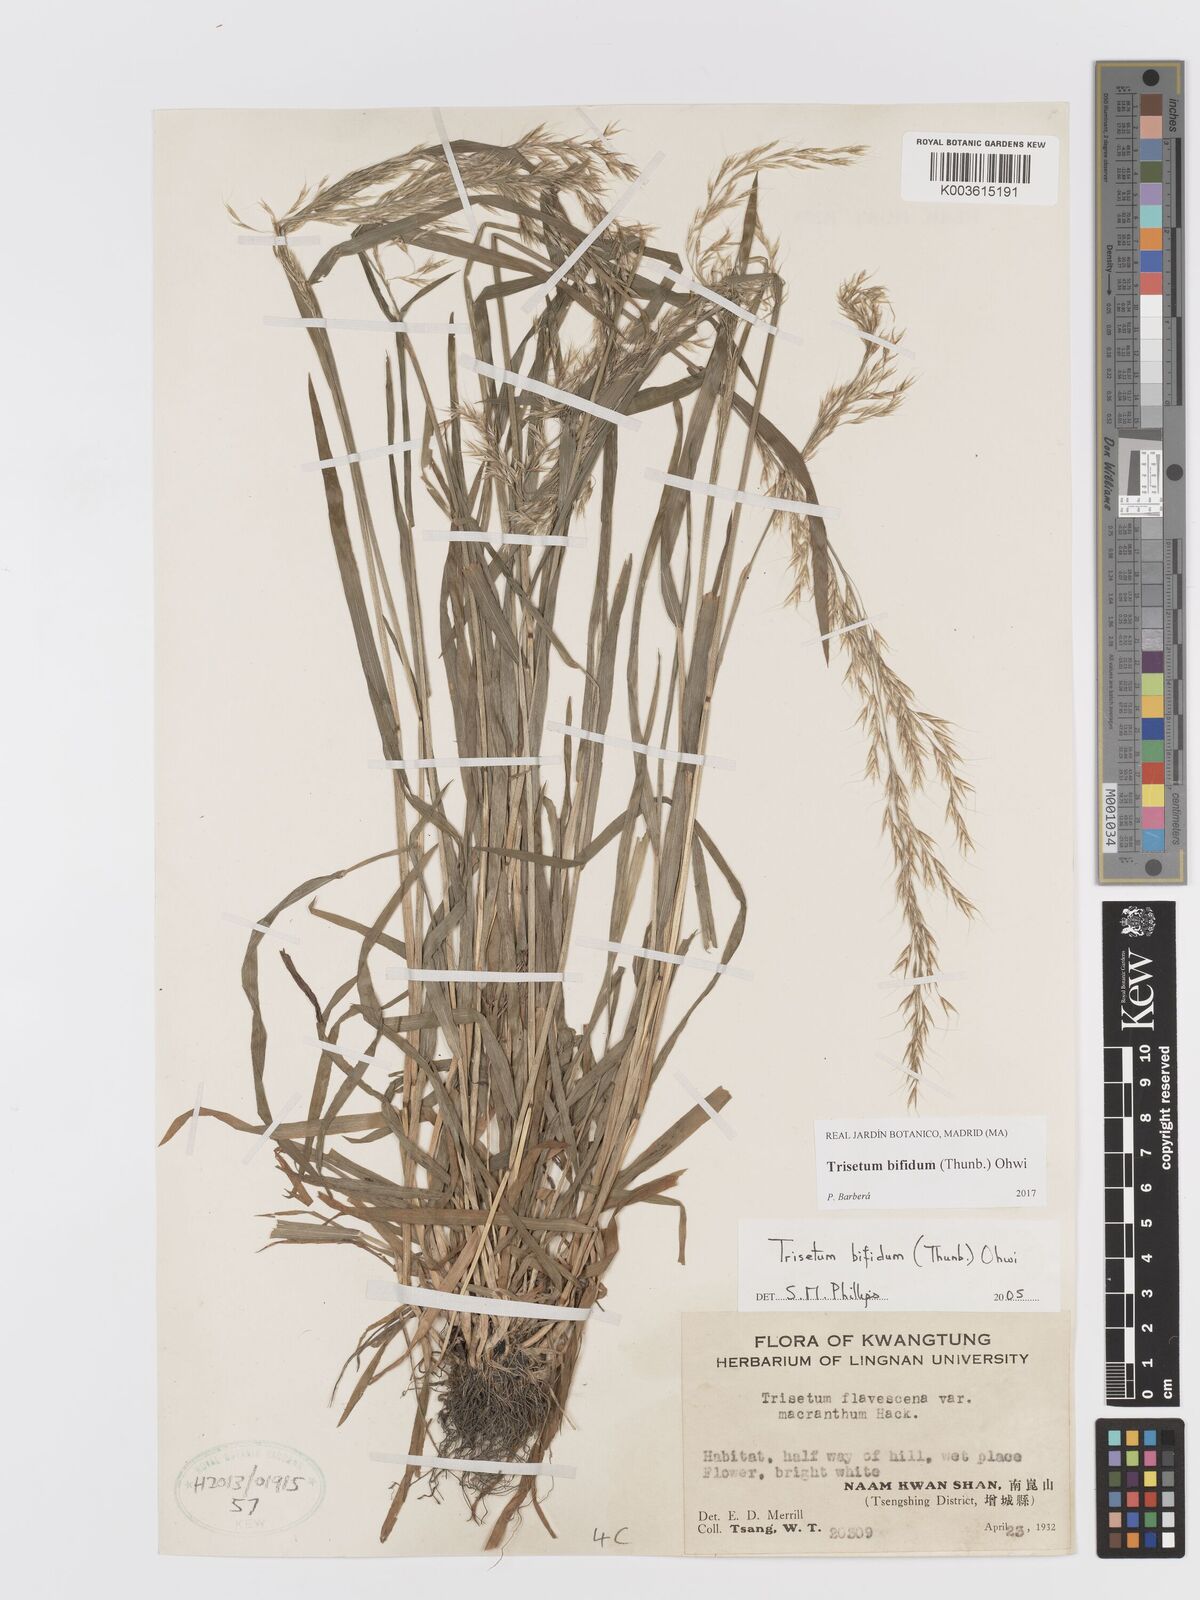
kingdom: Plantae
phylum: Tracheophyta
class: Liliopsida
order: Poales
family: Poaceae
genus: Sibirotrisetum
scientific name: Sibirotrisetum bifidum
